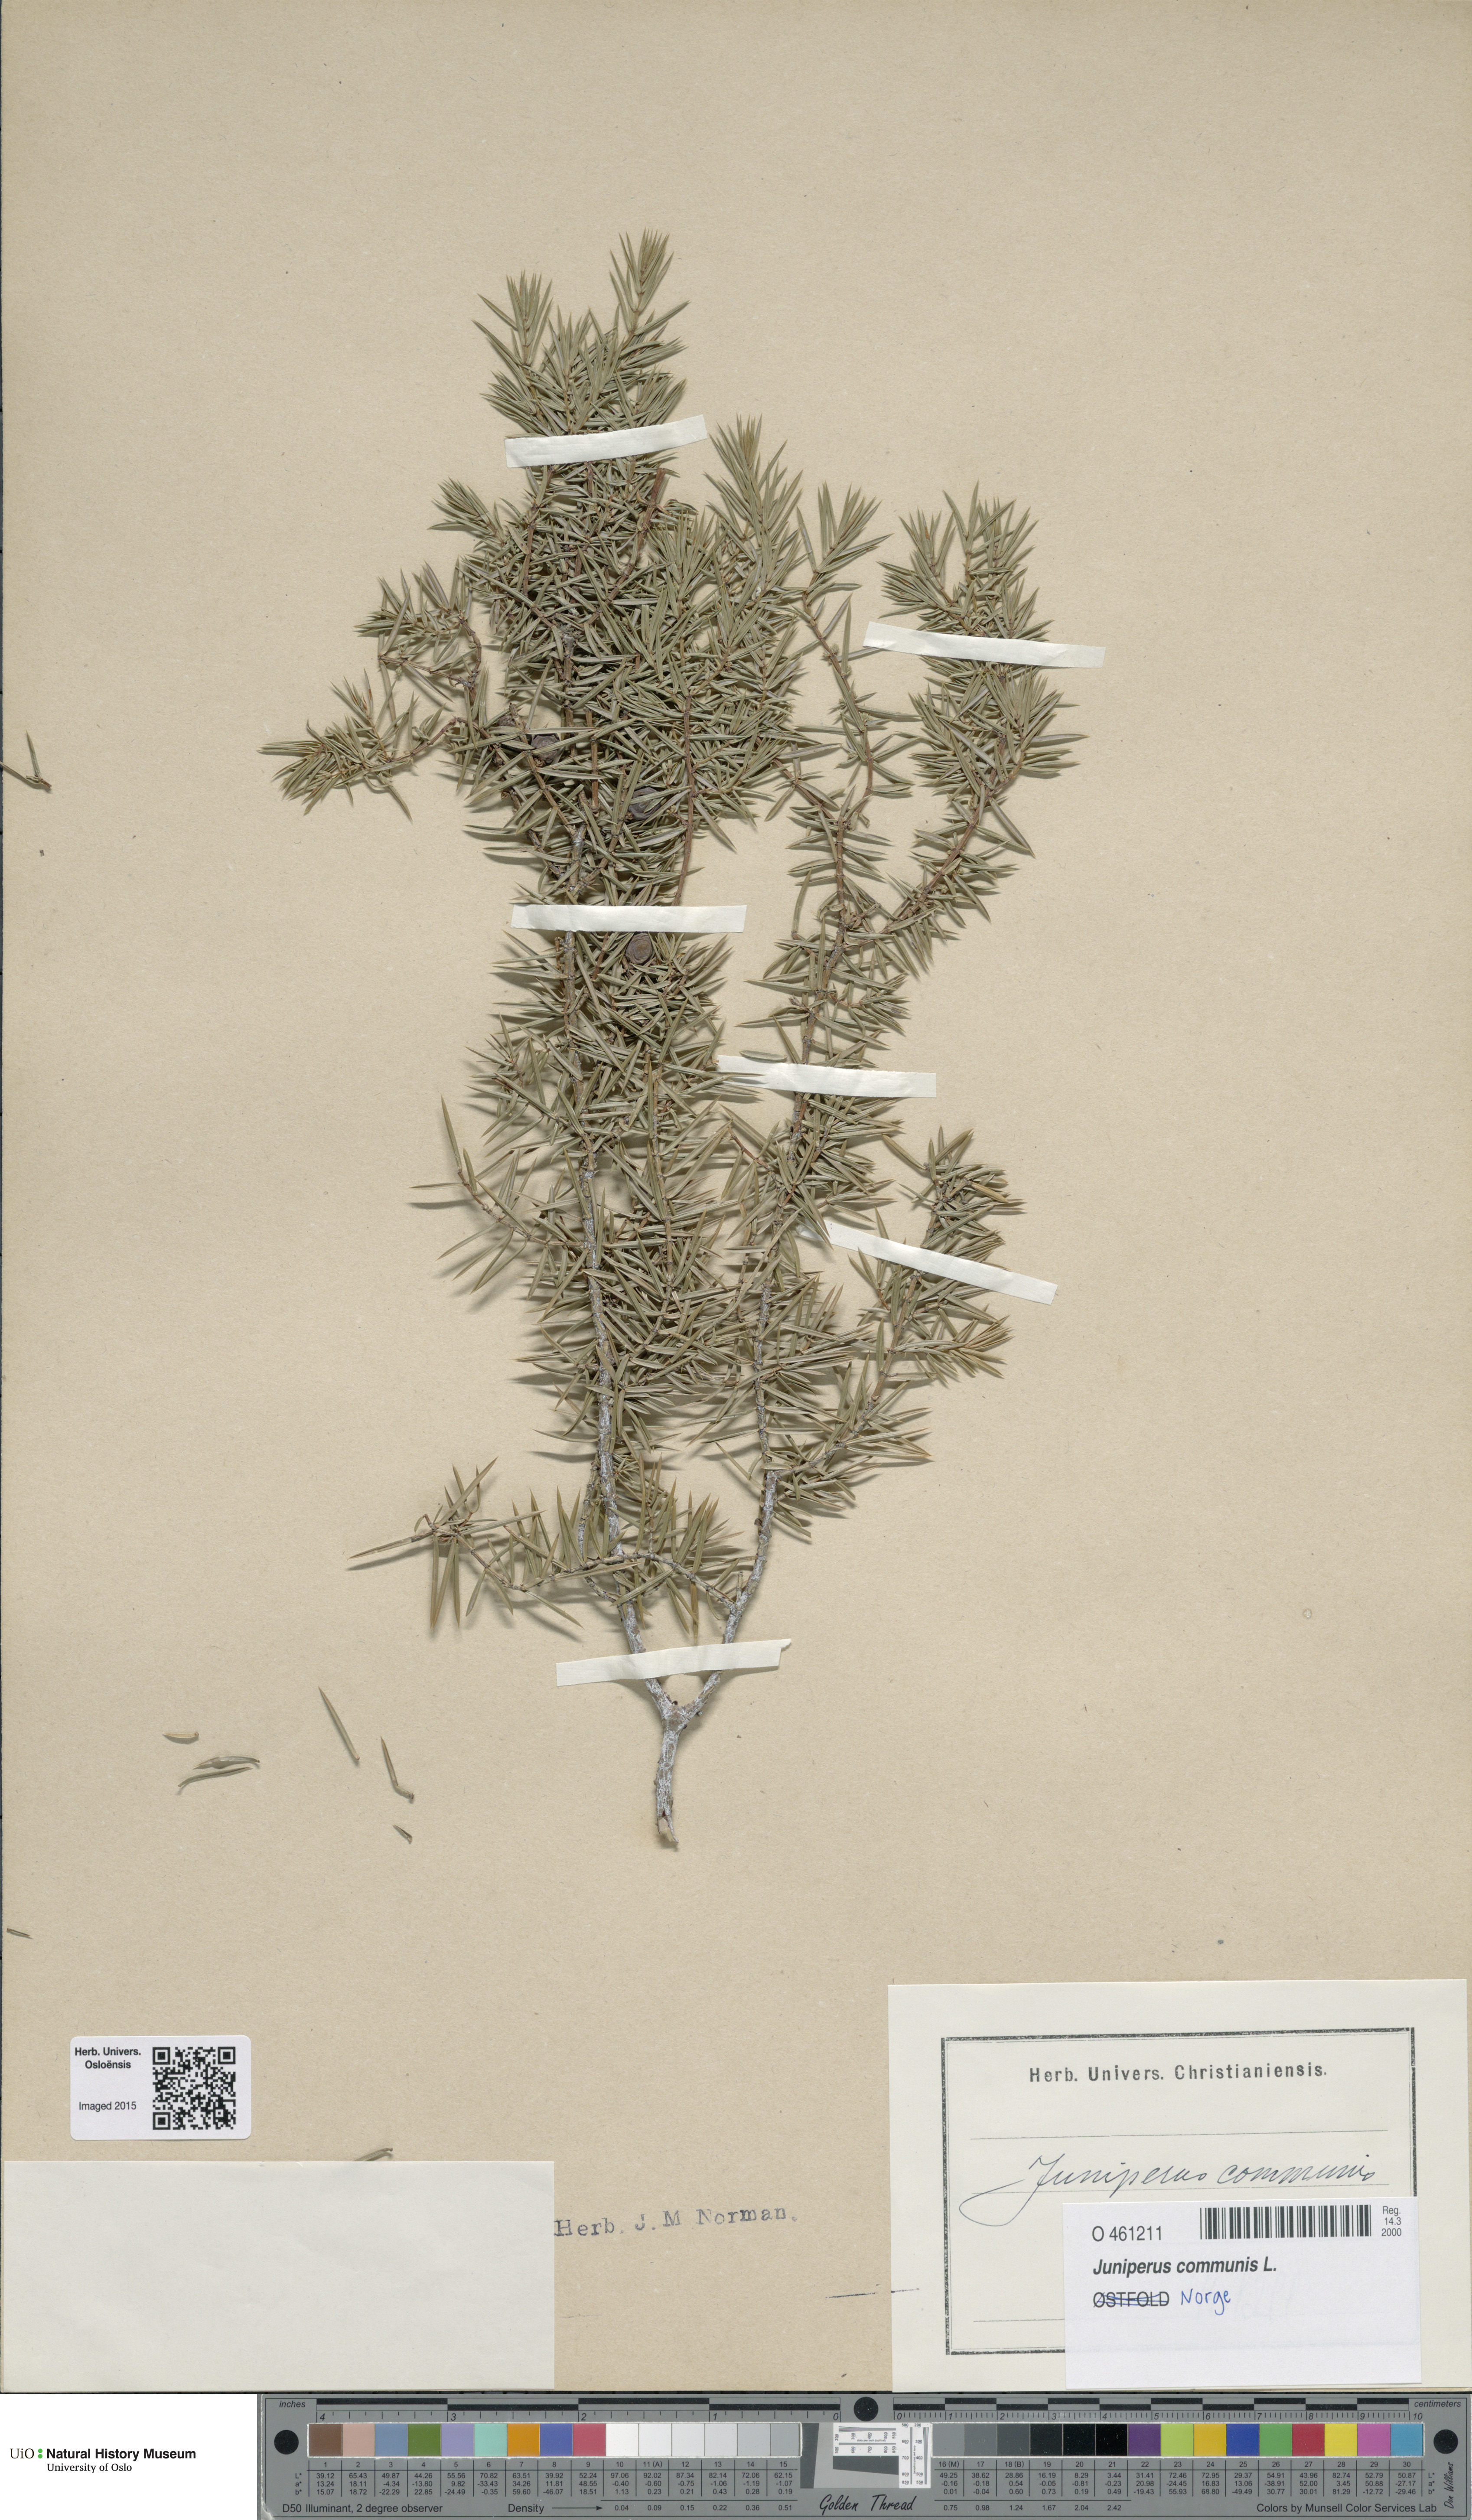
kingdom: Plantae
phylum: Tracheophyta
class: Pinopsida
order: Pinales
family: Cupressaceae
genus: Juniperus
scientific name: Juniperus communis
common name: Common juniper
